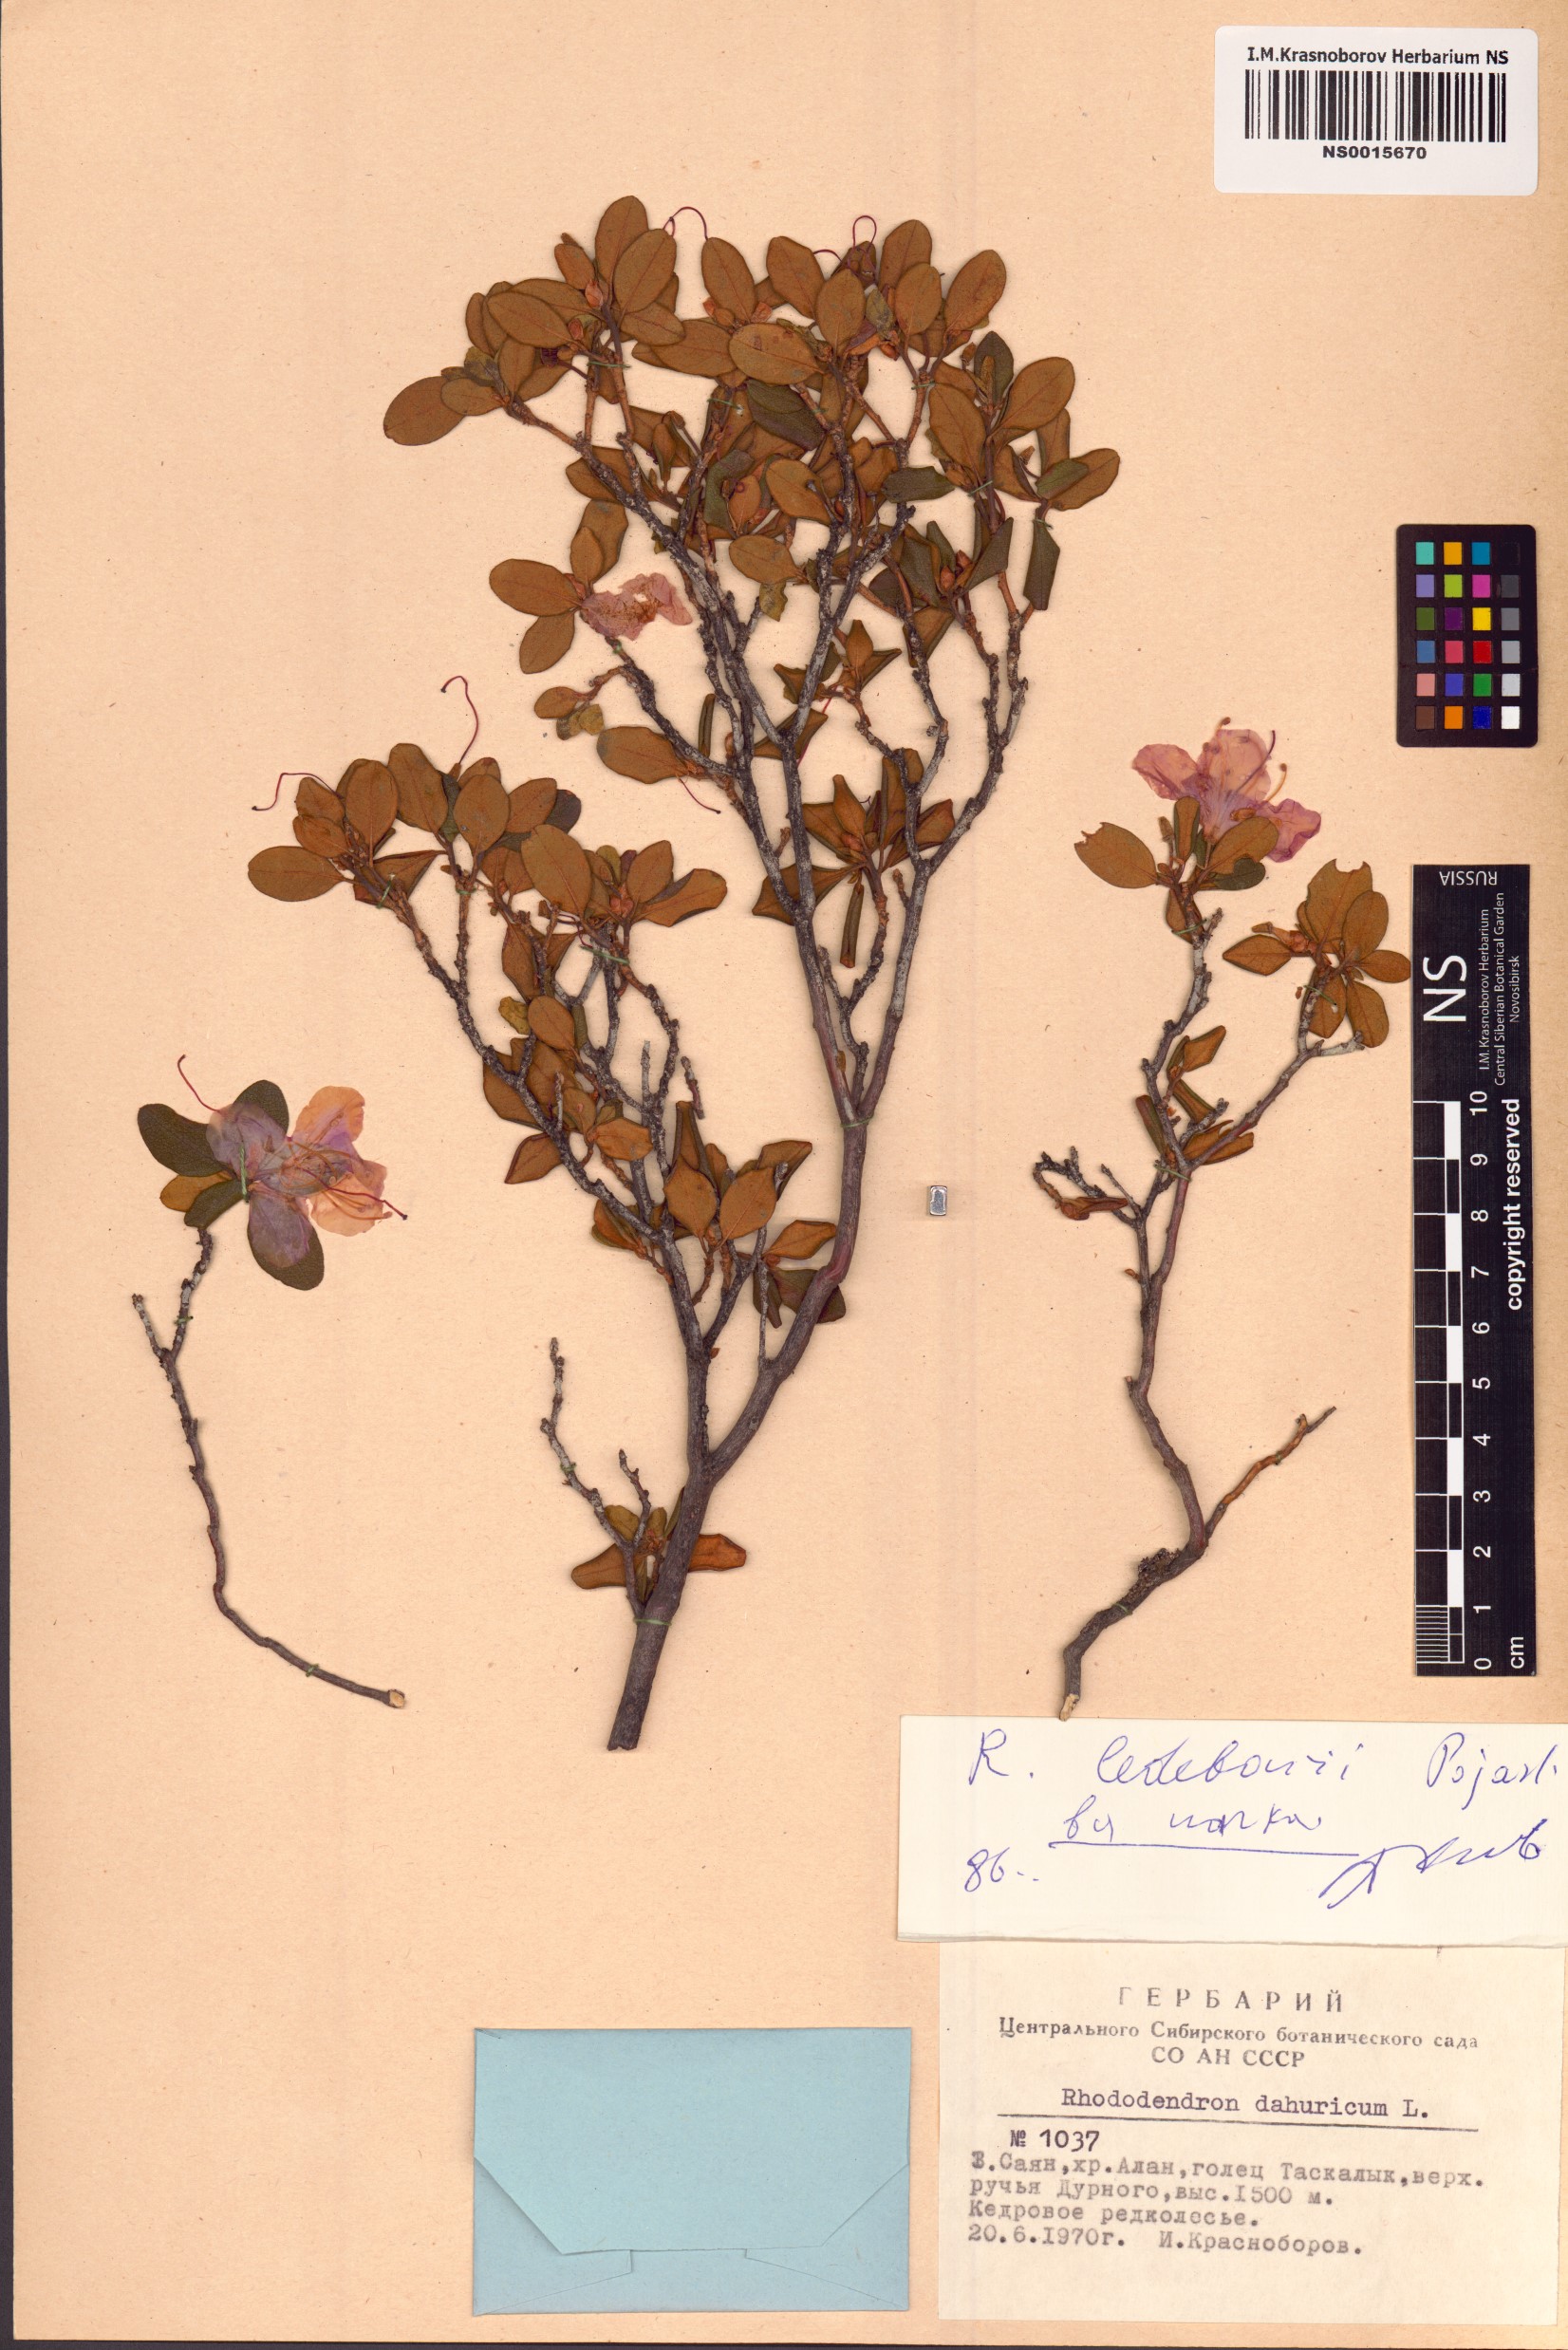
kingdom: Plantae
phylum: Tracheophyta
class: Magnoliopsida
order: Ericales
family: Ericaceae
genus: Rhododendron
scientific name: Rhododendron dauricum
